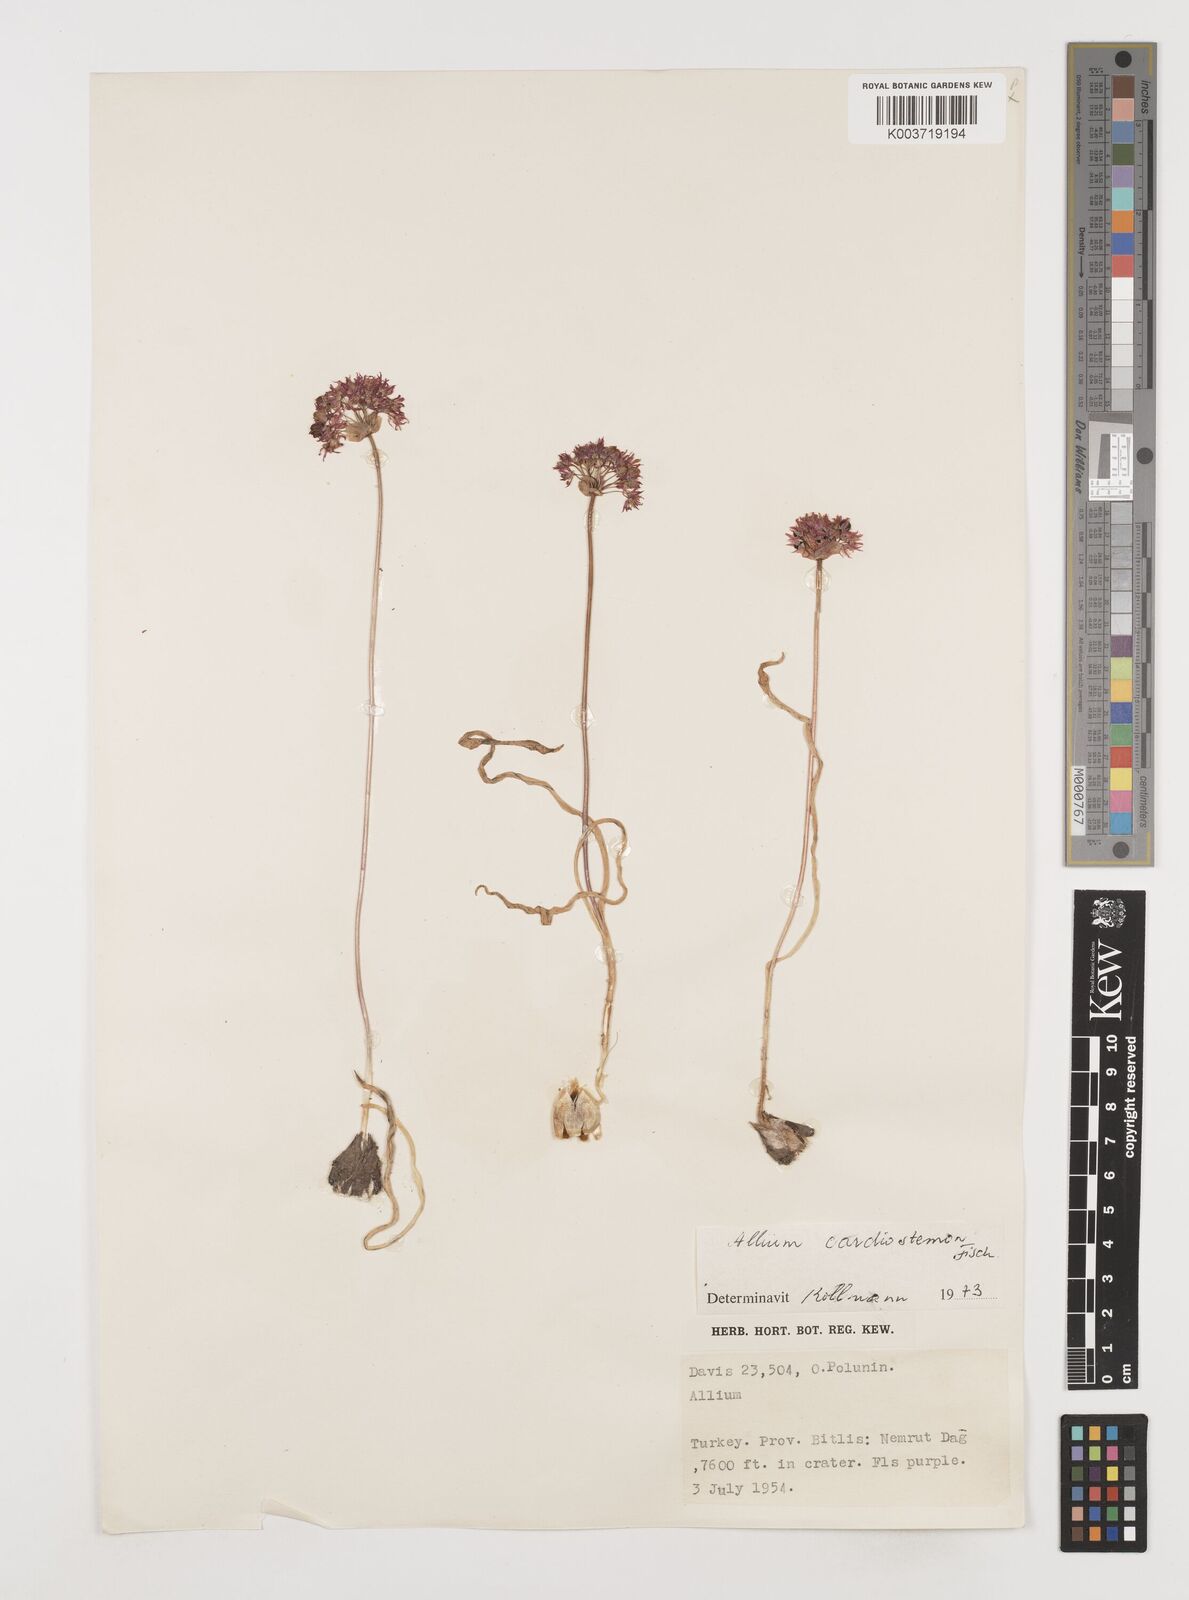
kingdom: Plantae
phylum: Tracheophyta
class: Liliopsida
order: Asparagales
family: Amaryllidaceae
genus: Allium
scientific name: Allium cardiostemon
